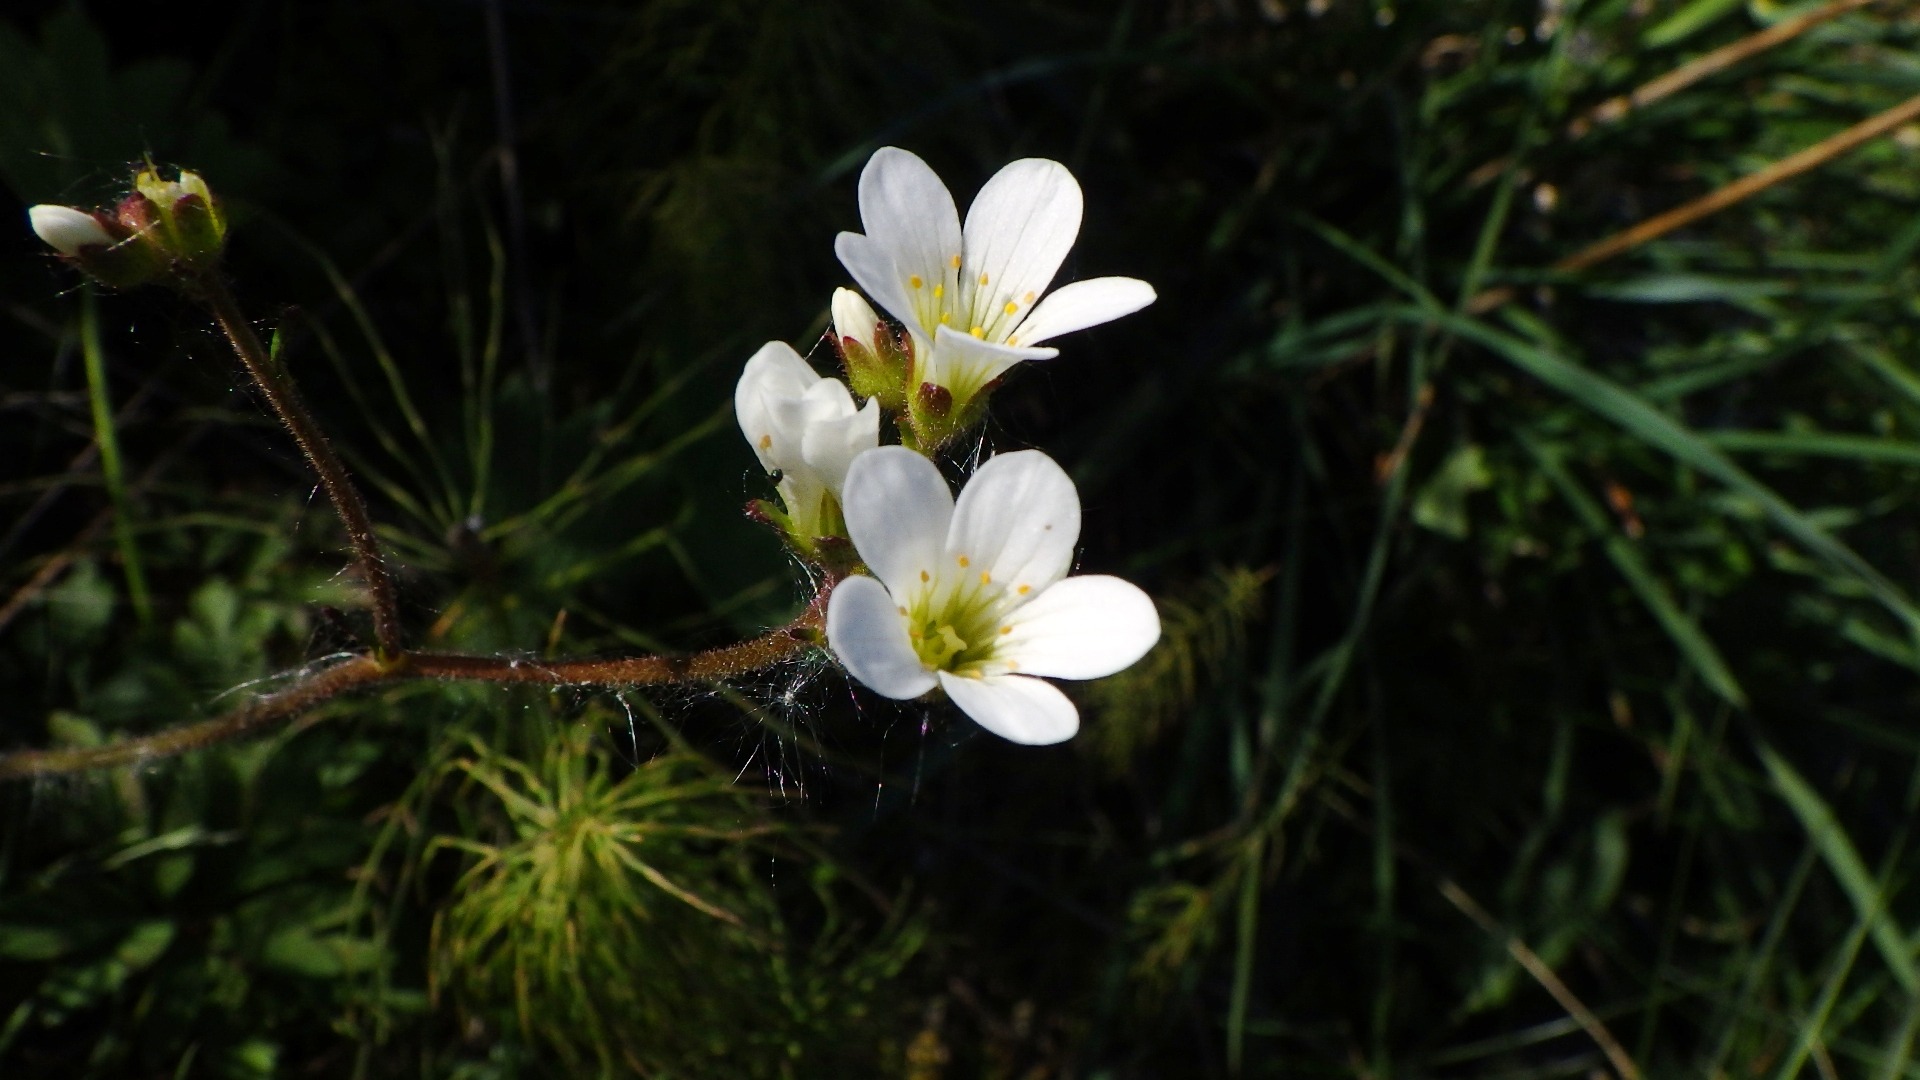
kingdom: Plantae
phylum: Tracheophyta
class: Magnoliopsida
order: Saxifragales
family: Saxifragaceae
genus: Saxifraga
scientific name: Saxifraga granulata
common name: Kornet stenbræk
